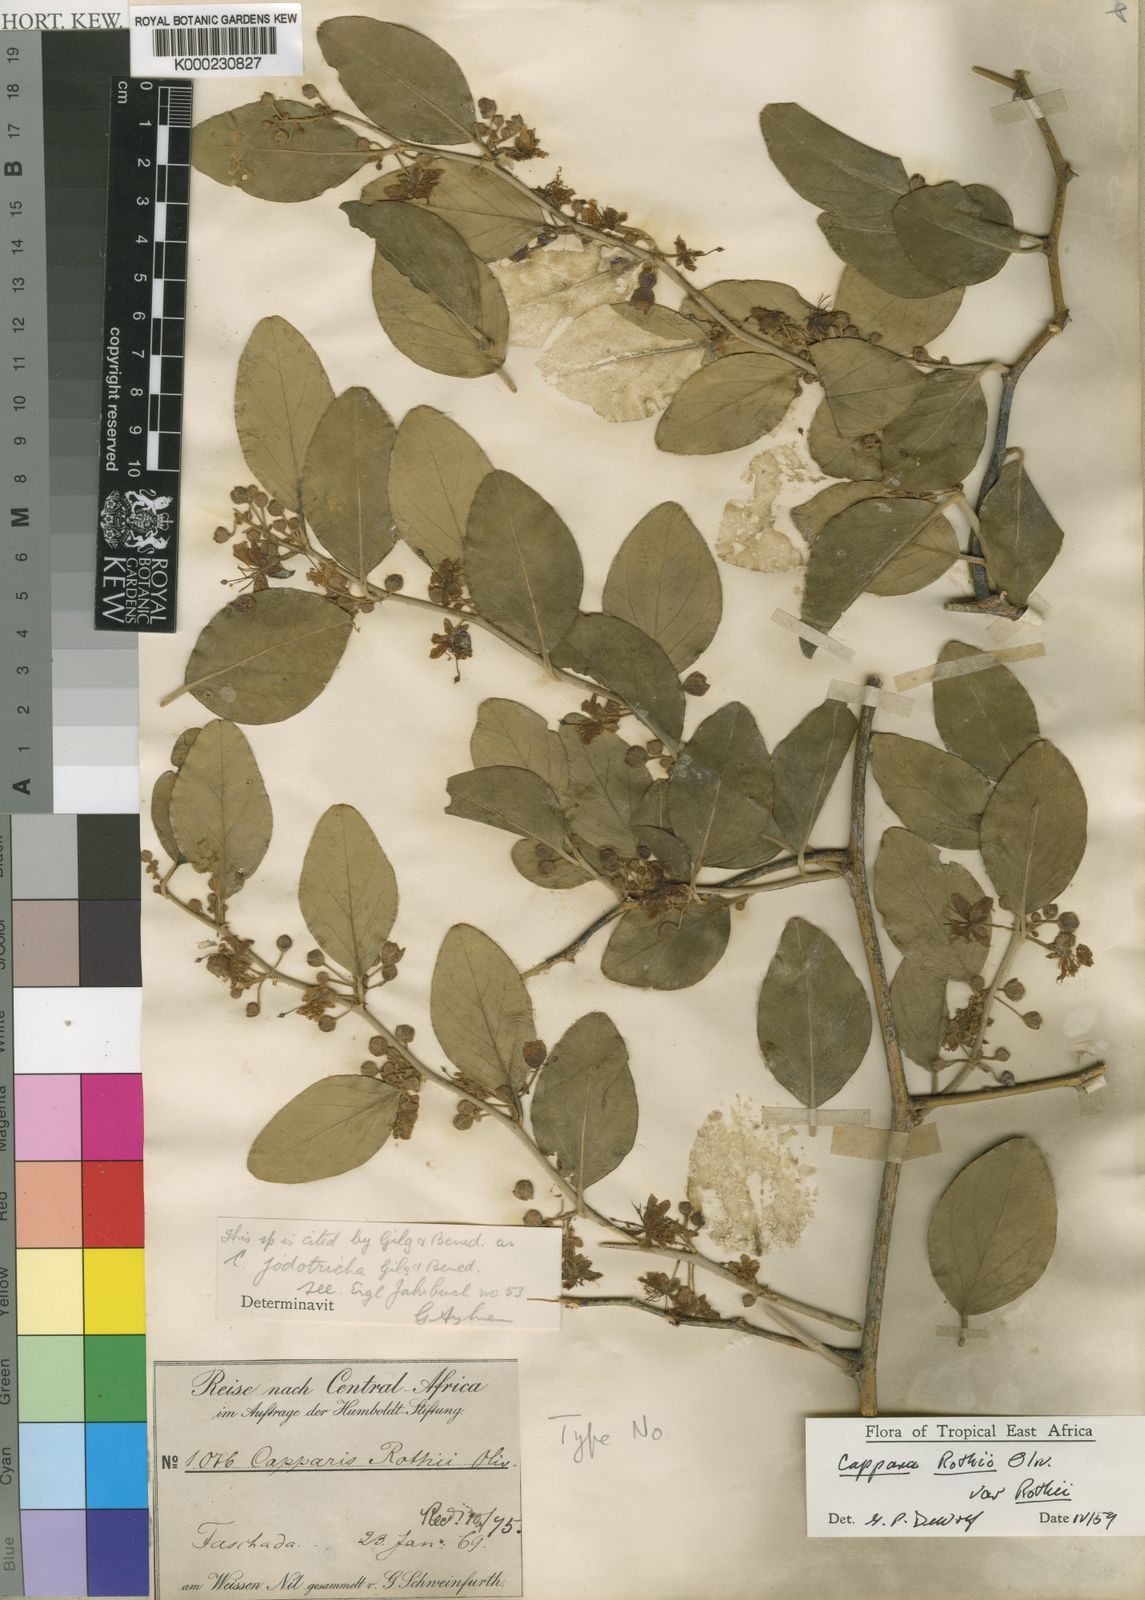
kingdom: Plantae
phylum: Tracheophyta
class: Magnoliopsida
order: Brassicales
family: Capparaceae
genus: Capparis
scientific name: Capparis fascicularis
